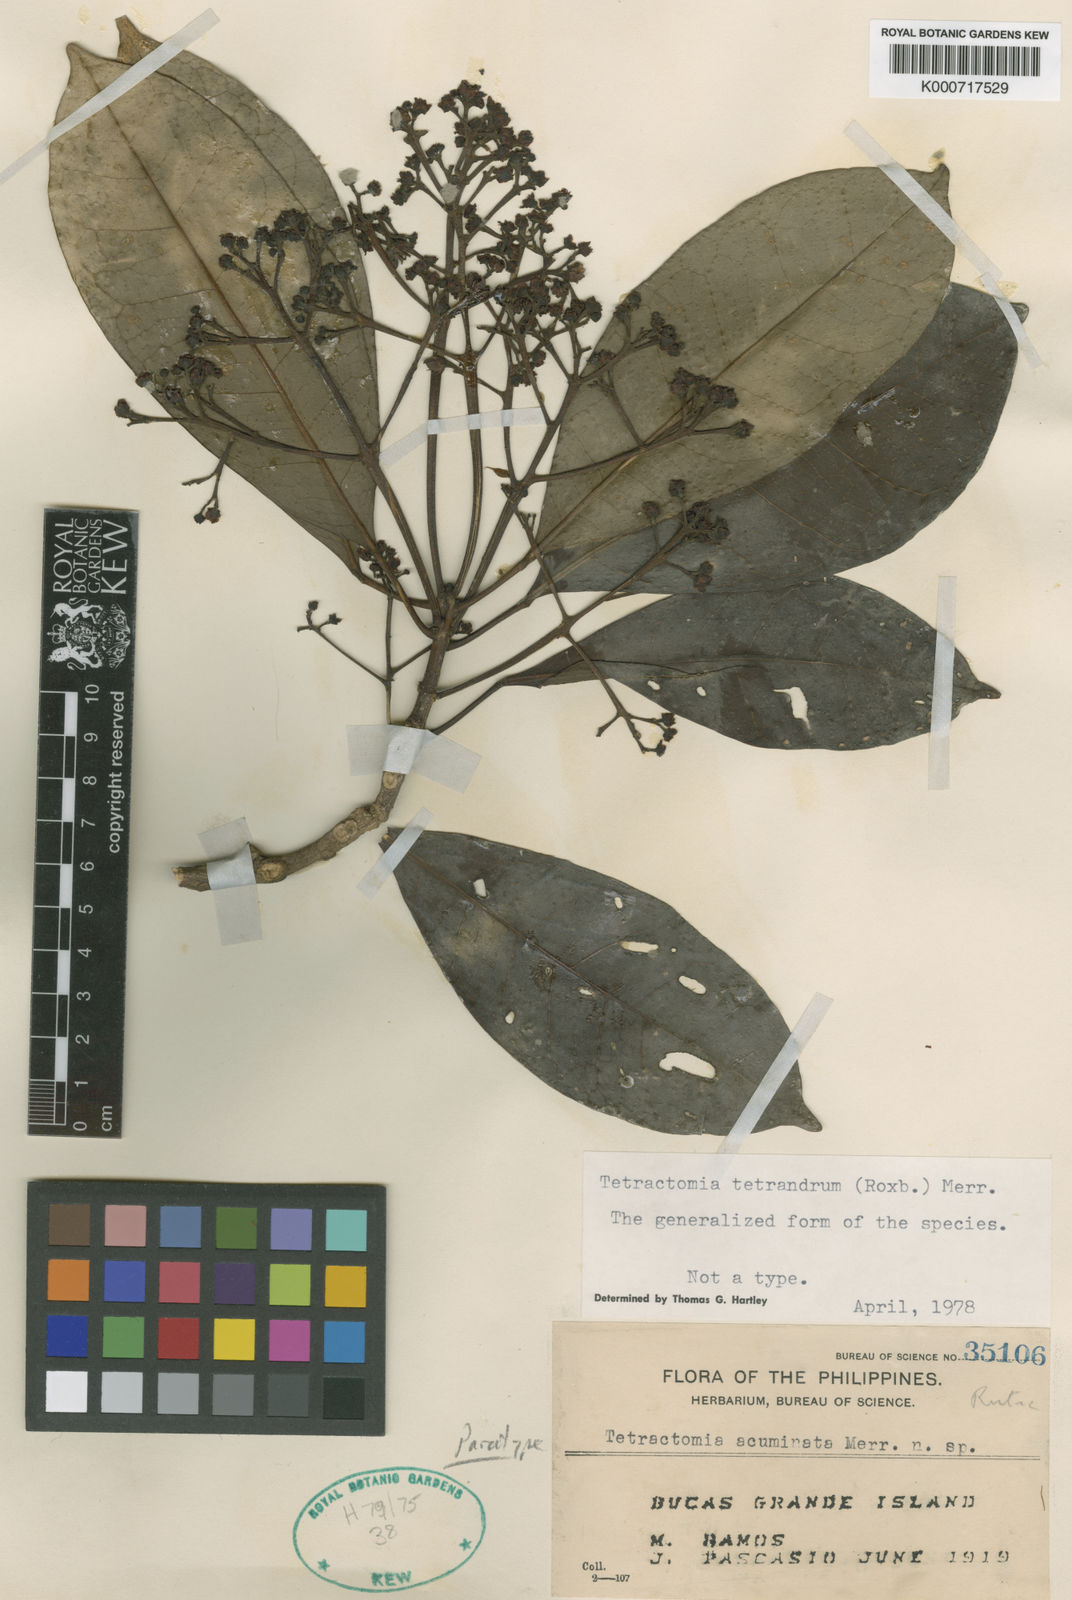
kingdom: Plantae
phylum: Tracheophyta
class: Magnoliopsida
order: Sapindales
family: Rutaceae
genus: Tetractomia
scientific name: Tetractomia tetrandra
